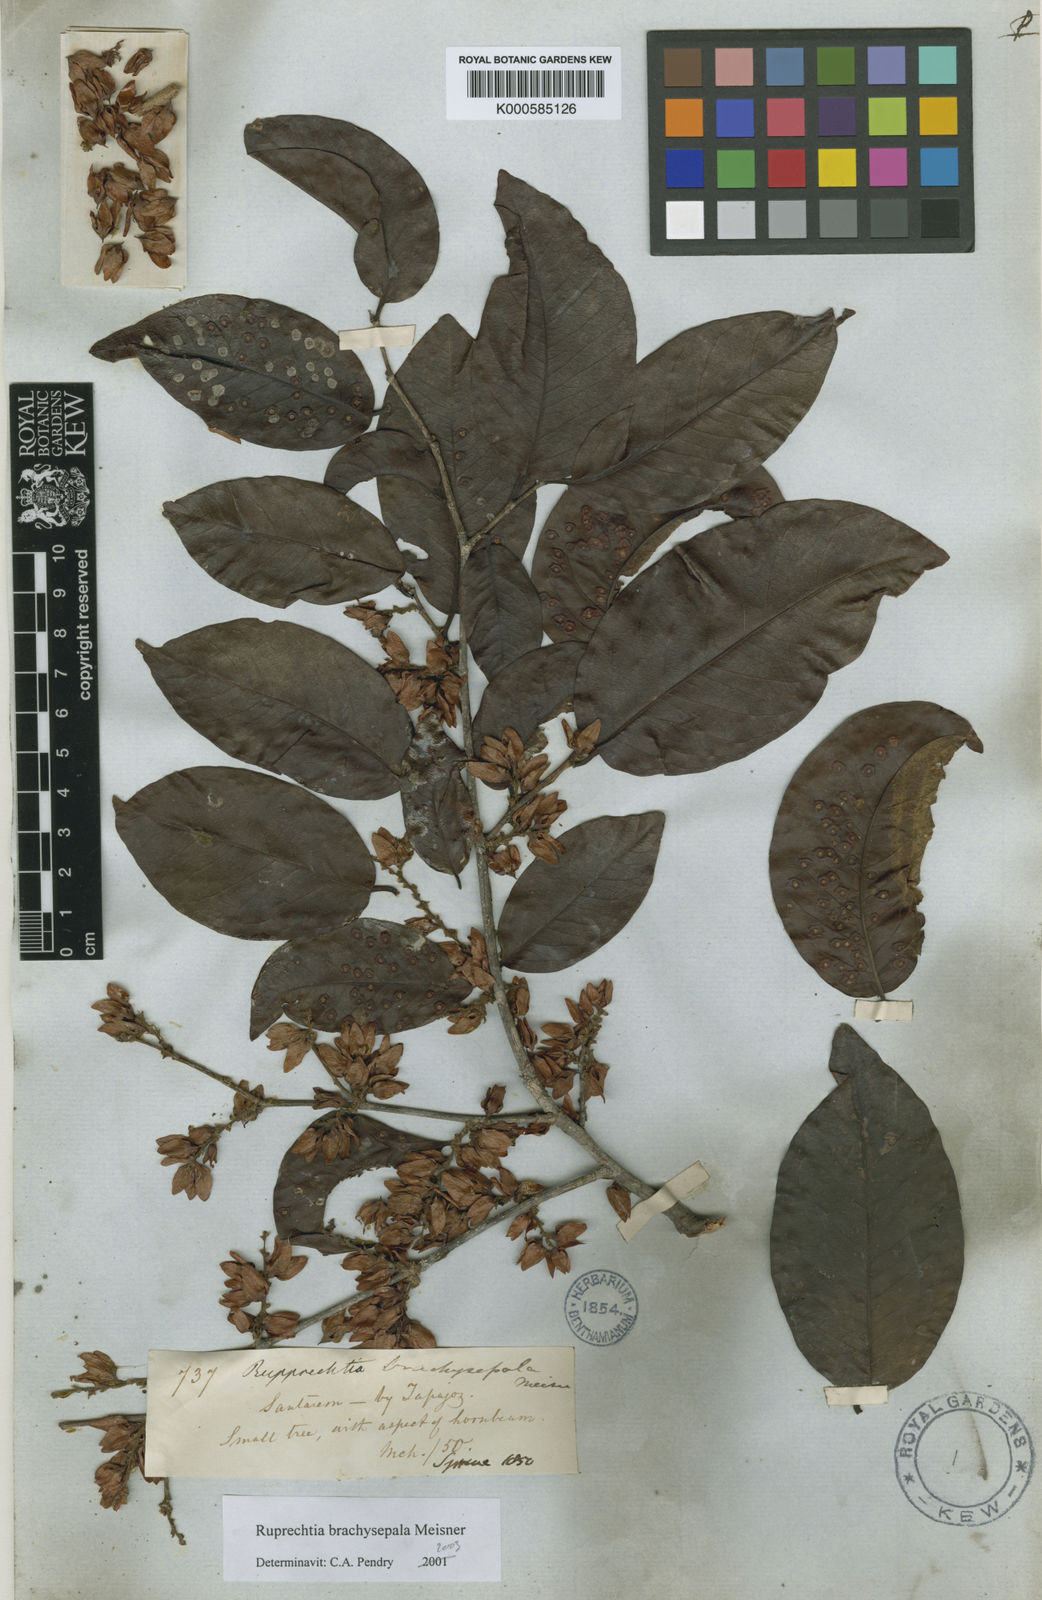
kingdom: Plantae
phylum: Tracheophyta
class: Magnoliopsida
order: Caryophyllales
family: Polygonaceae
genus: Ruprechtia
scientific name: Ruprechtia brachysepala
